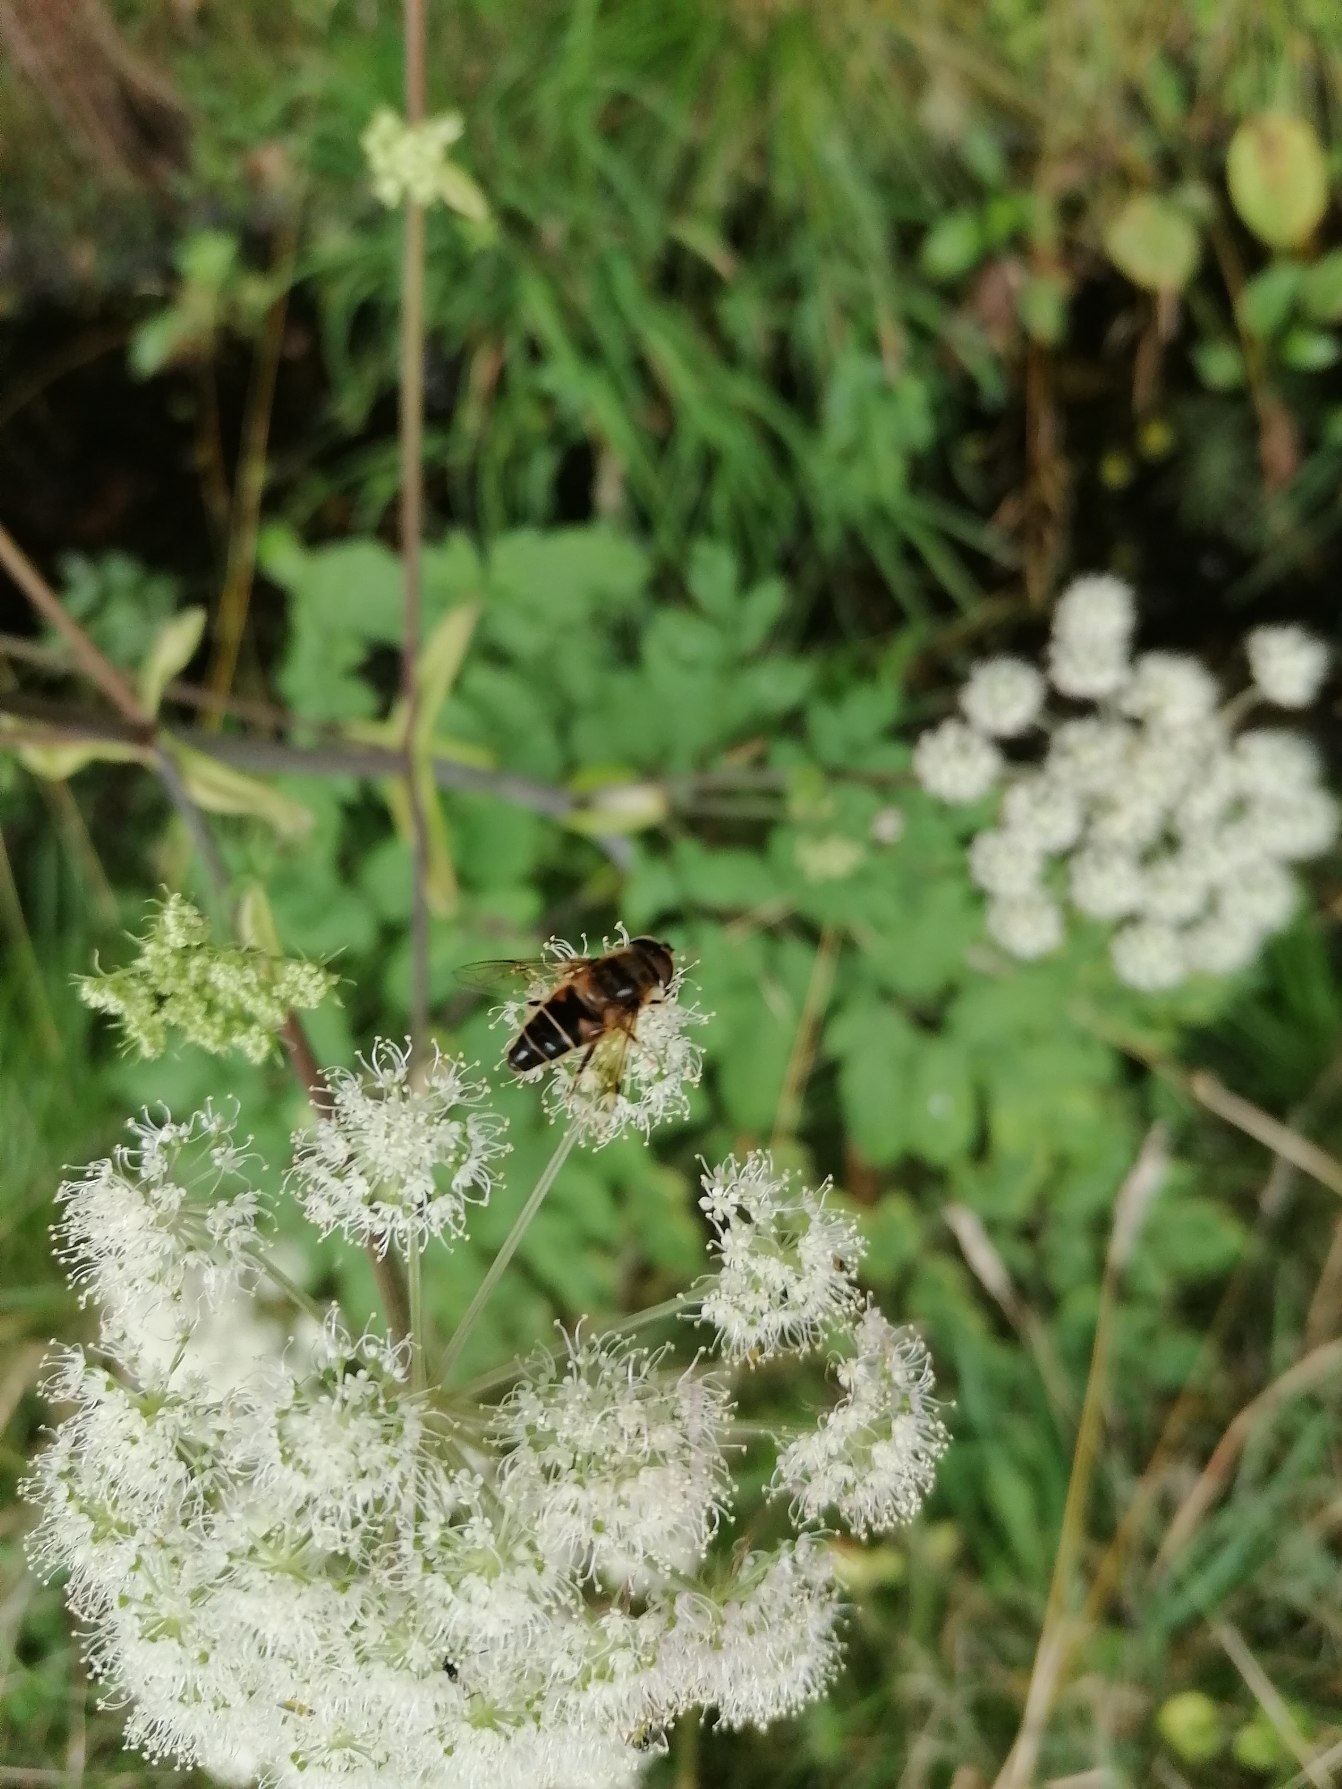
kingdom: Plantae
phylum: Tracheophyta
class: Magnoliopsida
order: Apiales
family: Apiaceae
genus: Angelica
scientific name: Angelica sylvestris
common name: Angelik
